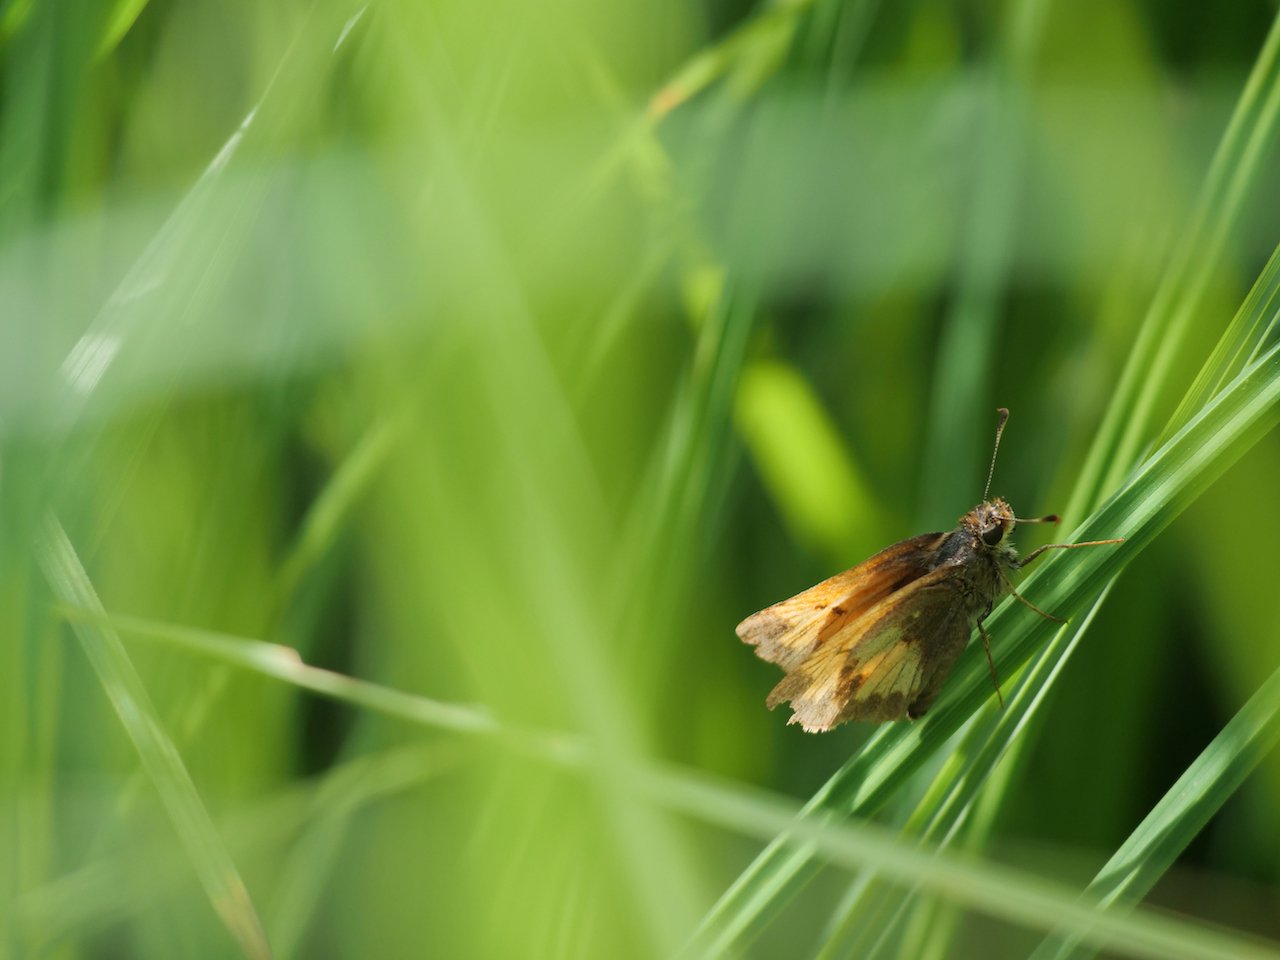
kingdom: Animalia
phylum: Arthropoda
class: Insecta
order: Lepidoptera
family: Hesperiidae
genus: Lon
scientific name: Lon hobomok
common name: Hobomok Skipper
